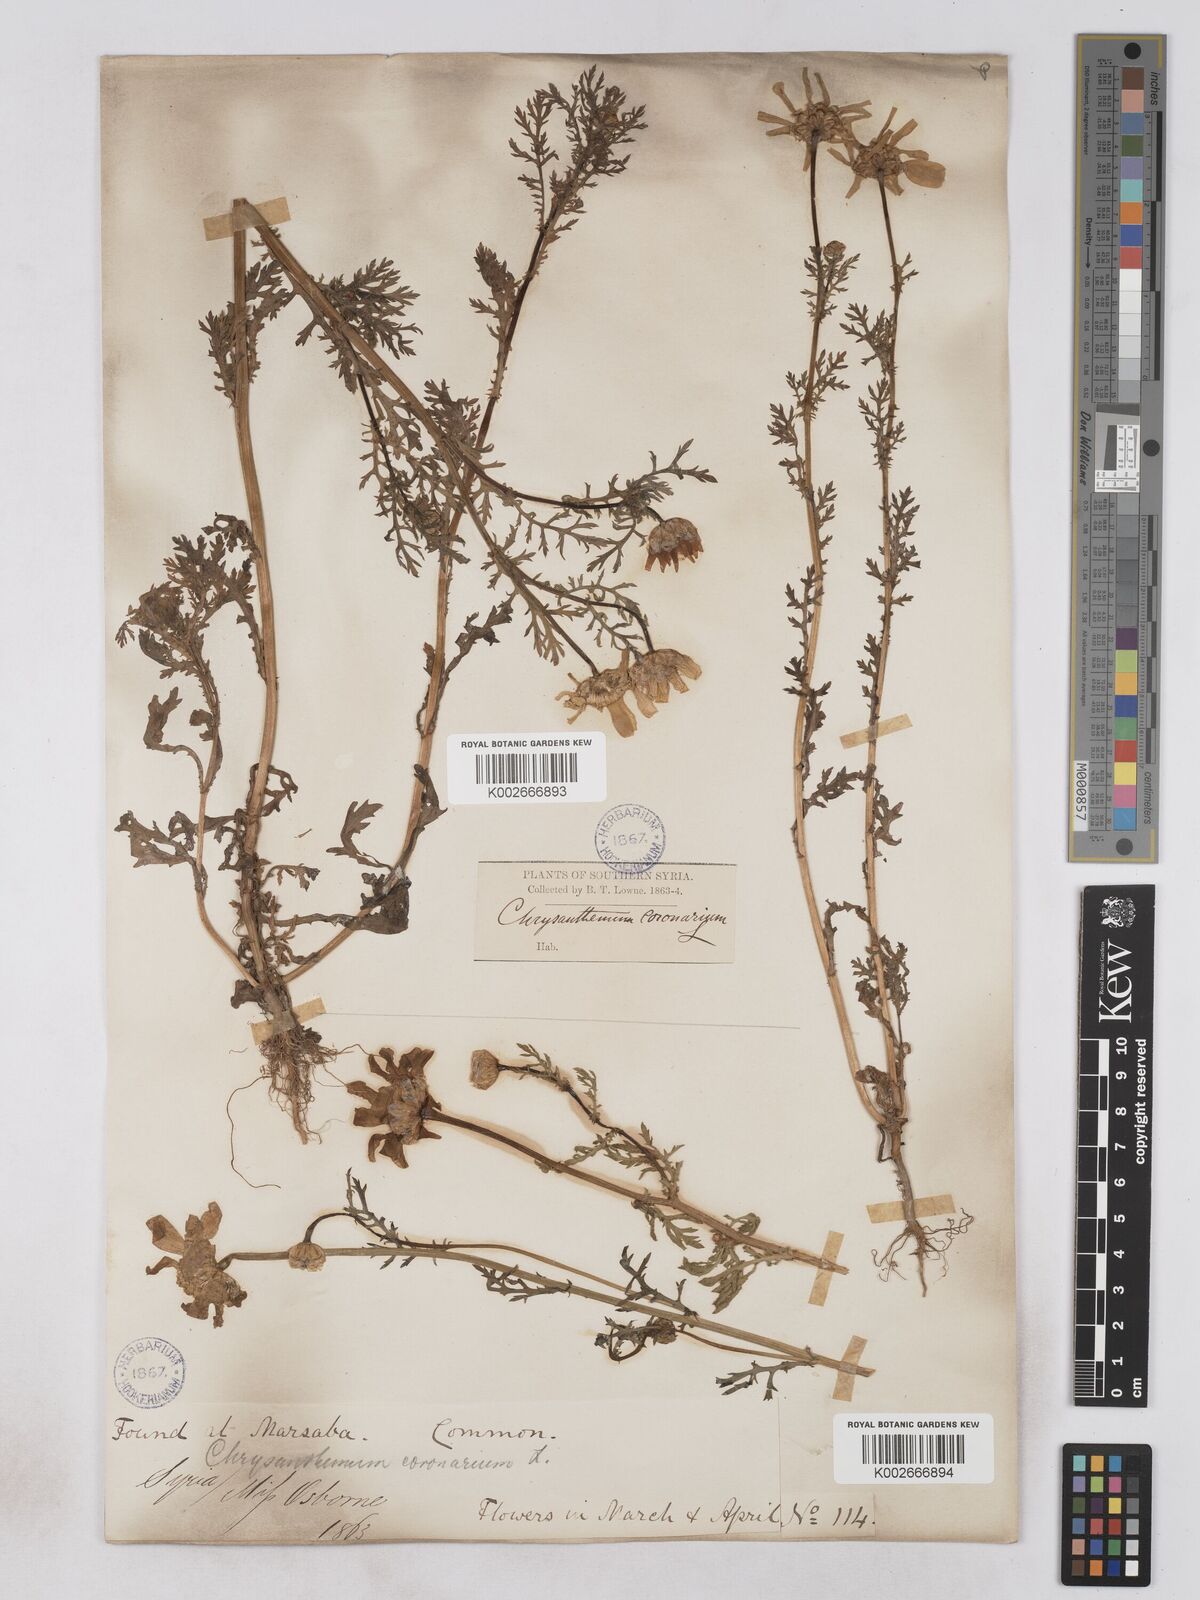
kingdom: Plantae
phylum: Tracheophyta
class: Magnoliopsida
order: Asterales
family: Asteraceae
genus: Glebionis
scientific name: Glebionis coronaria
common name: Crowndaisy
